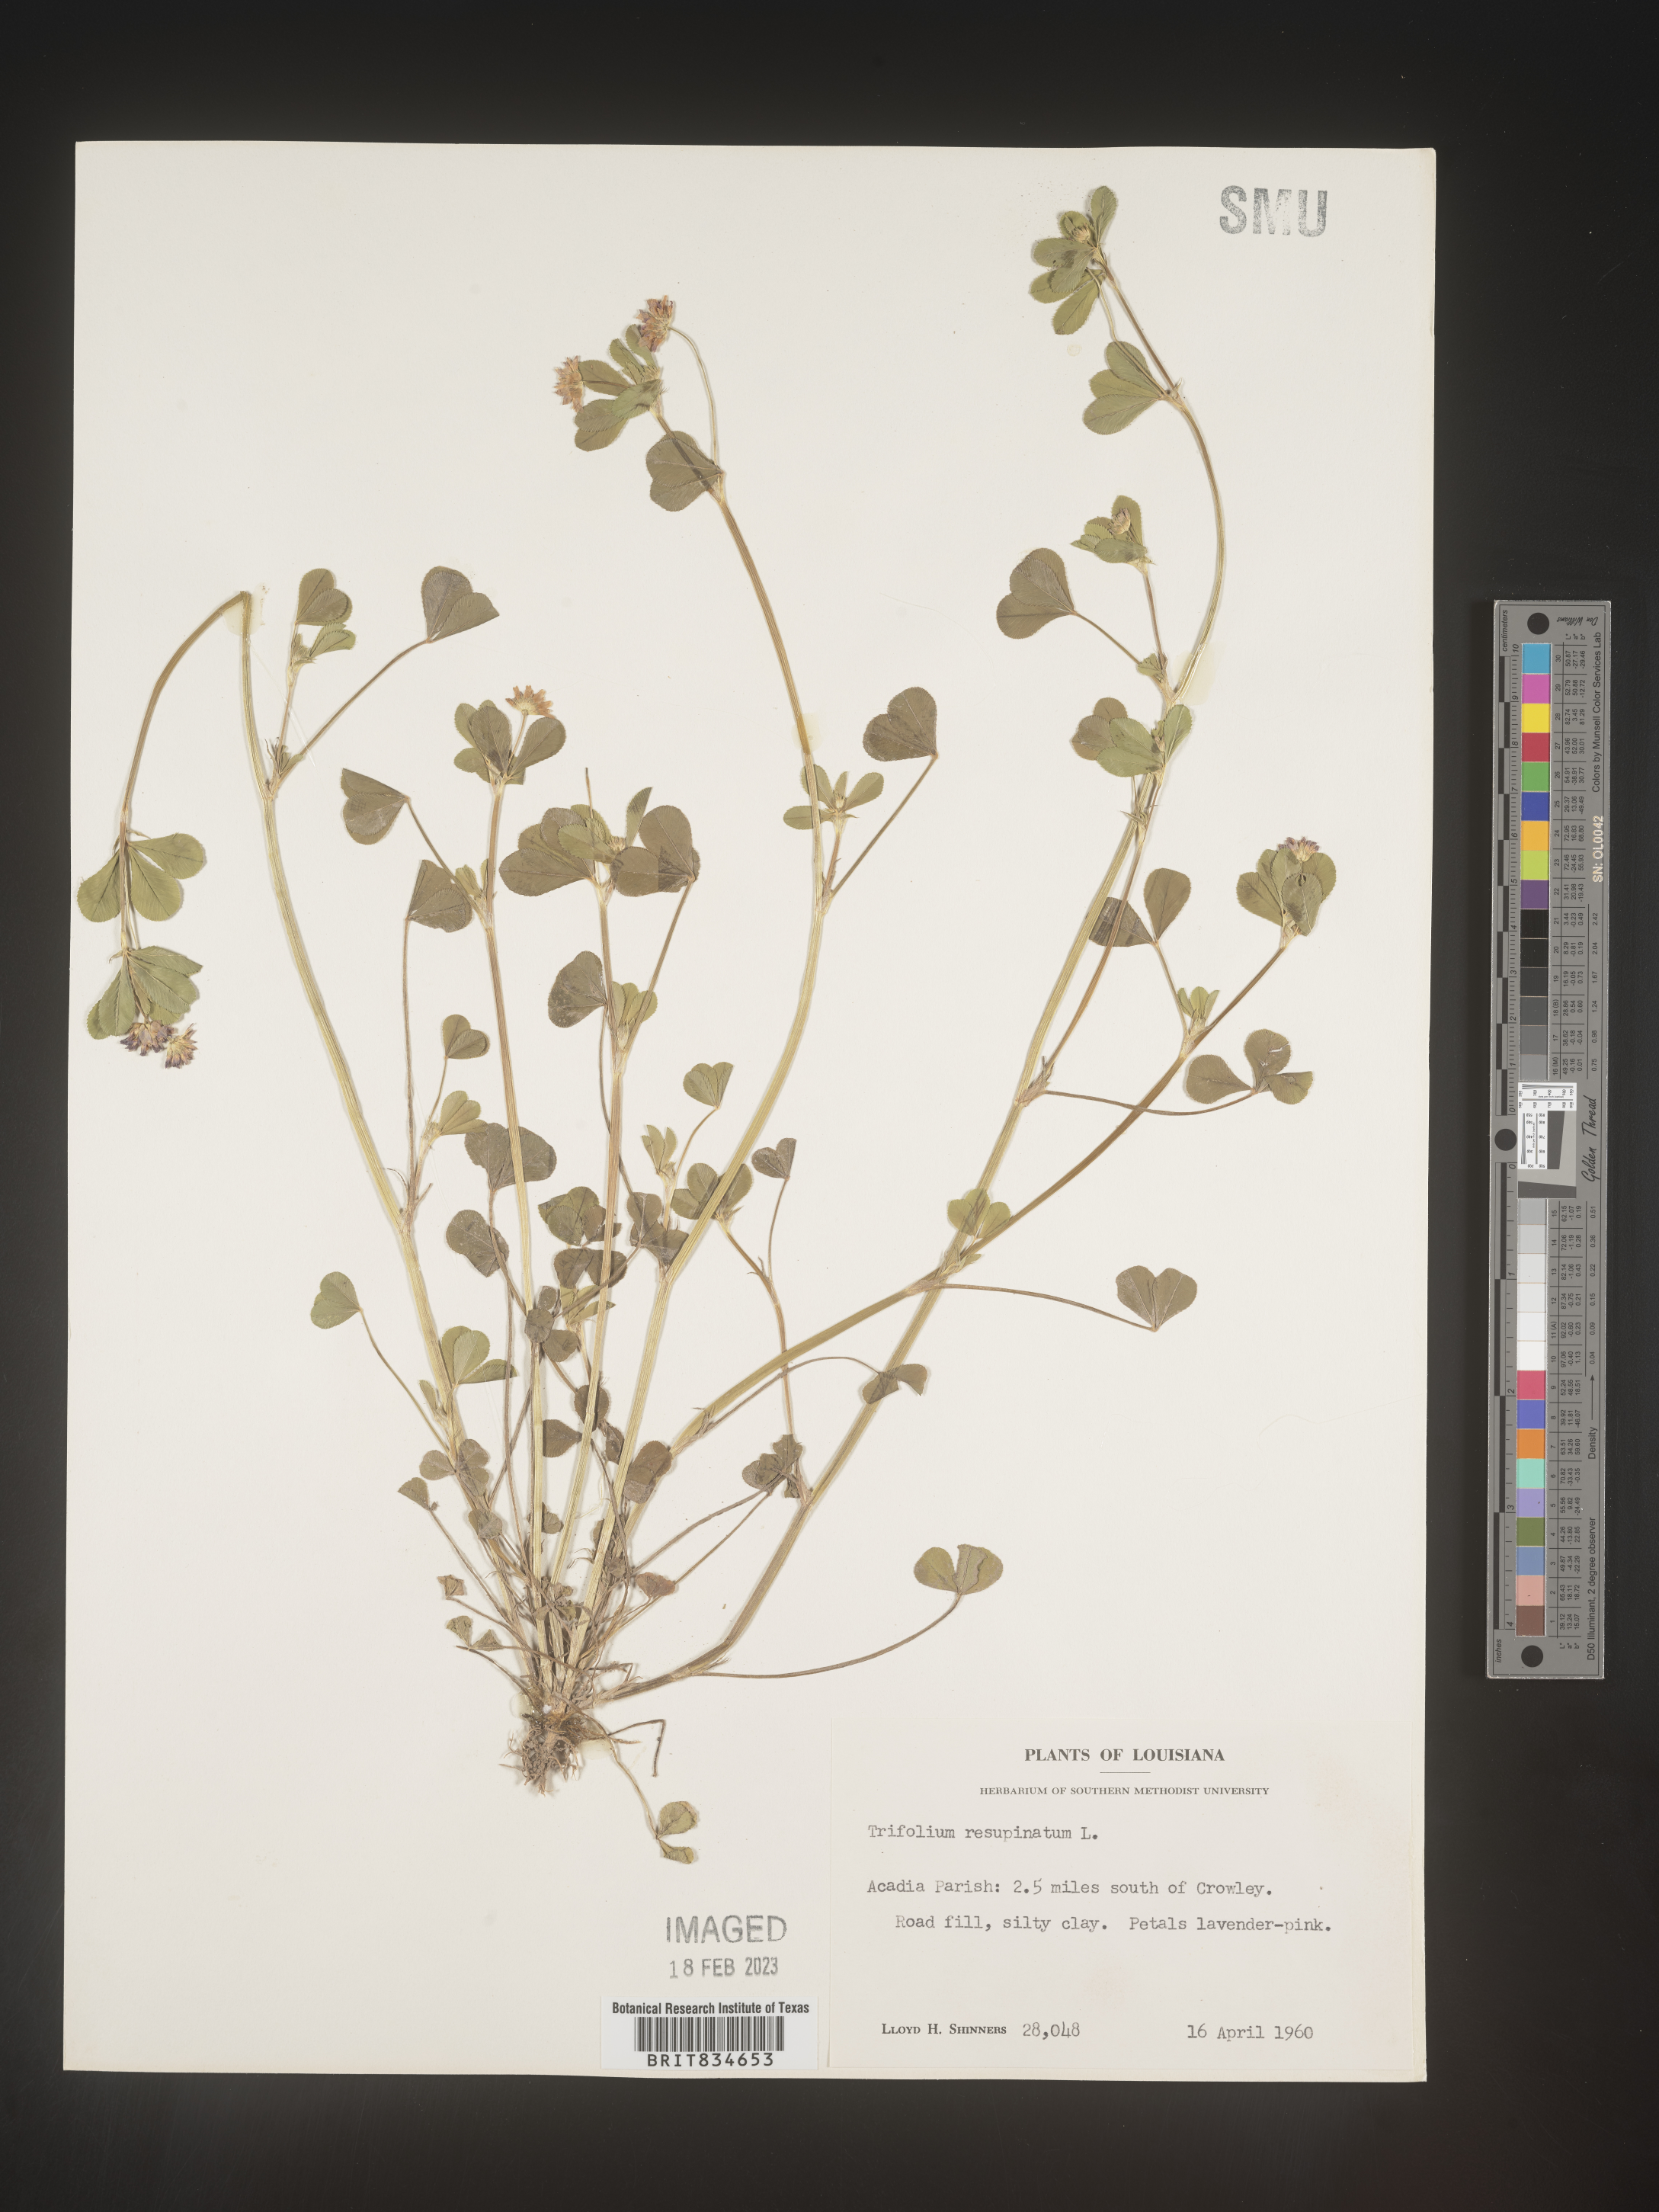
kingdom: Plantae
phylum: Tracheophyta
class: Magnoliopsida
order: Fabales
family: Fabaceae
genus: Trifolium
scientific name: Trifolium resupinatum
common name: Reversed clover
